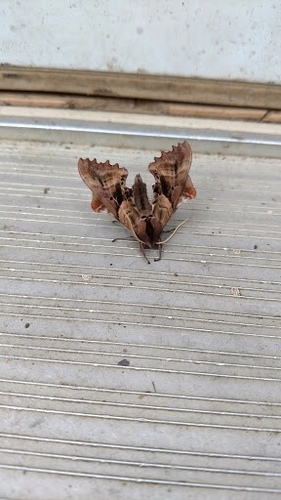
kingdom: Animalia
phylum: Arthropoda
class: Insecta
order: Lepidoptera
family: Sphingidae
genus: Paonias
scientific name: Paonias excaecata
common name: Blind-eyed sphinx
